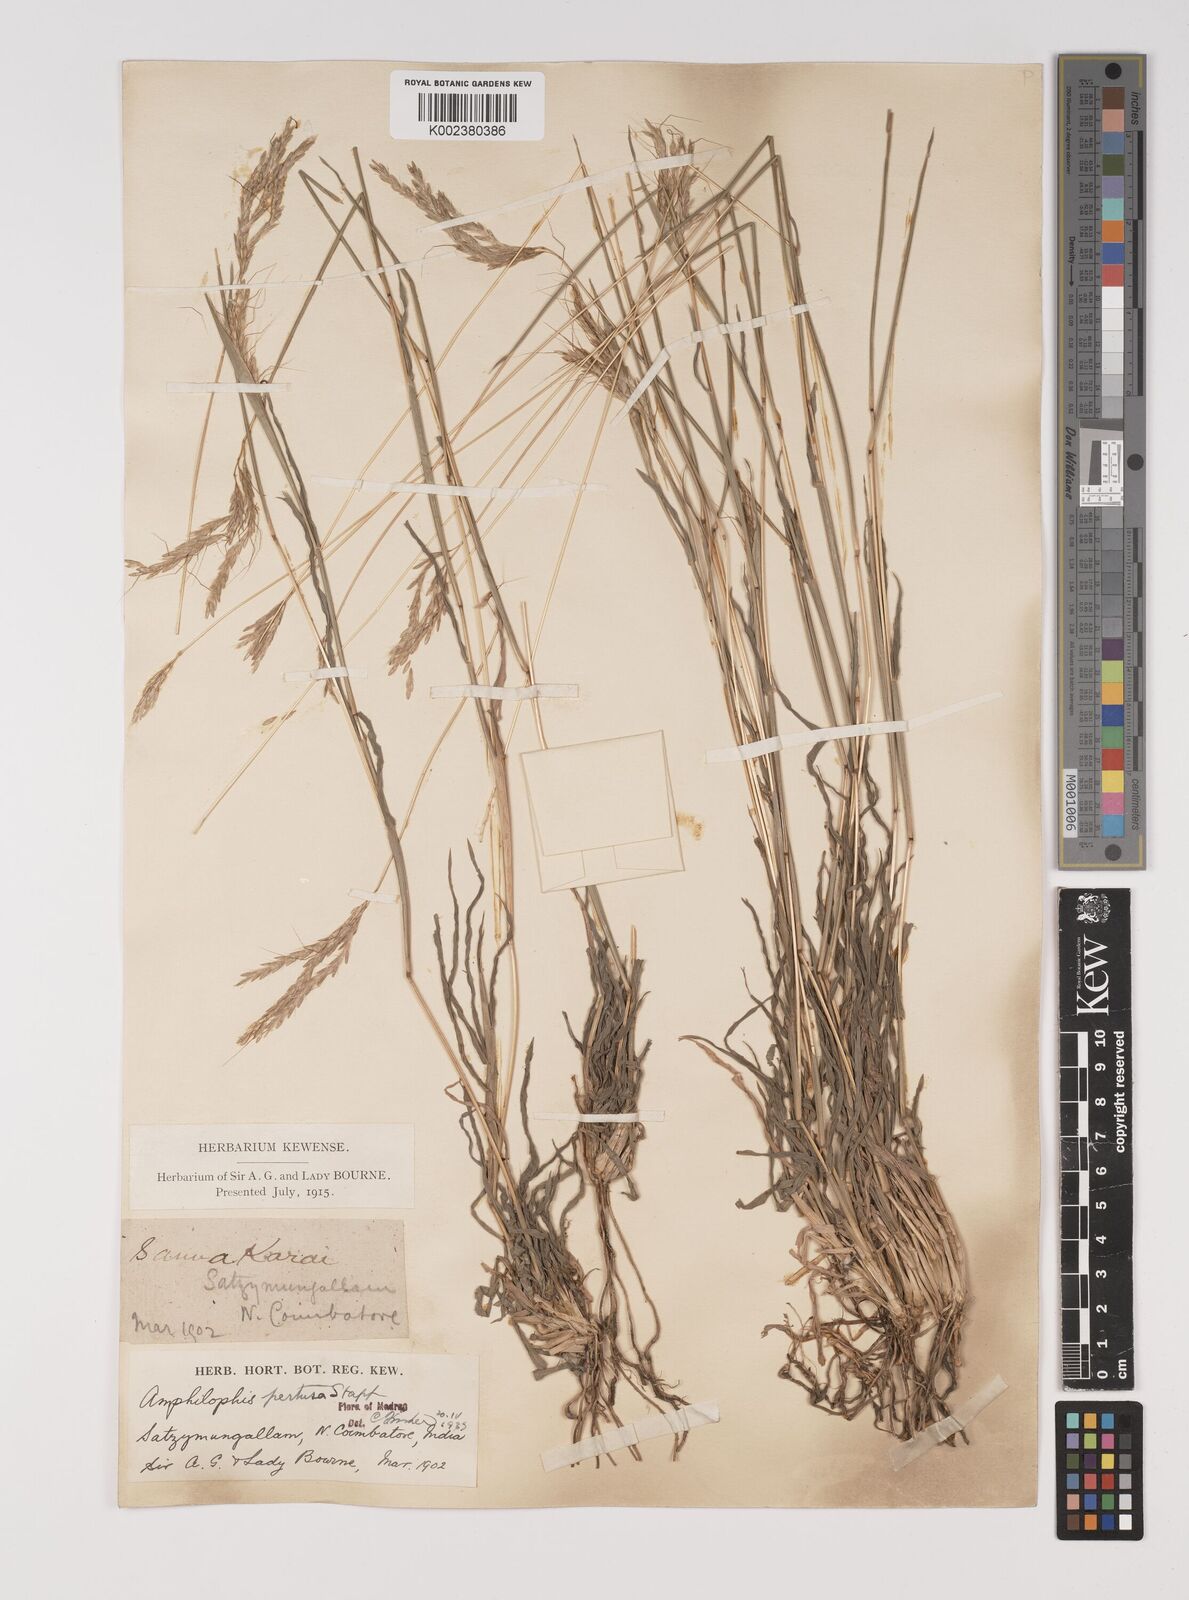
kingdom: Plantae
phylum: Tracheophyta
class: Liliopsida
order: Poales
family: Poaceae
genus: Bothriochloa
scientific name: Bothriochloa pertusa
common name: Pitted beardgrass
